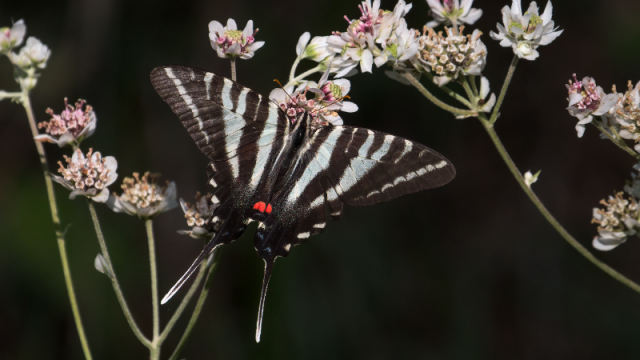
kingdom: Animalia
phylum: Arthropoda
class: Insecta
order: Lepidoptera
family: Papilionidae
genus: Protographium
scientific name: Protographium marcellus
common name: Zebra Swallowtail
